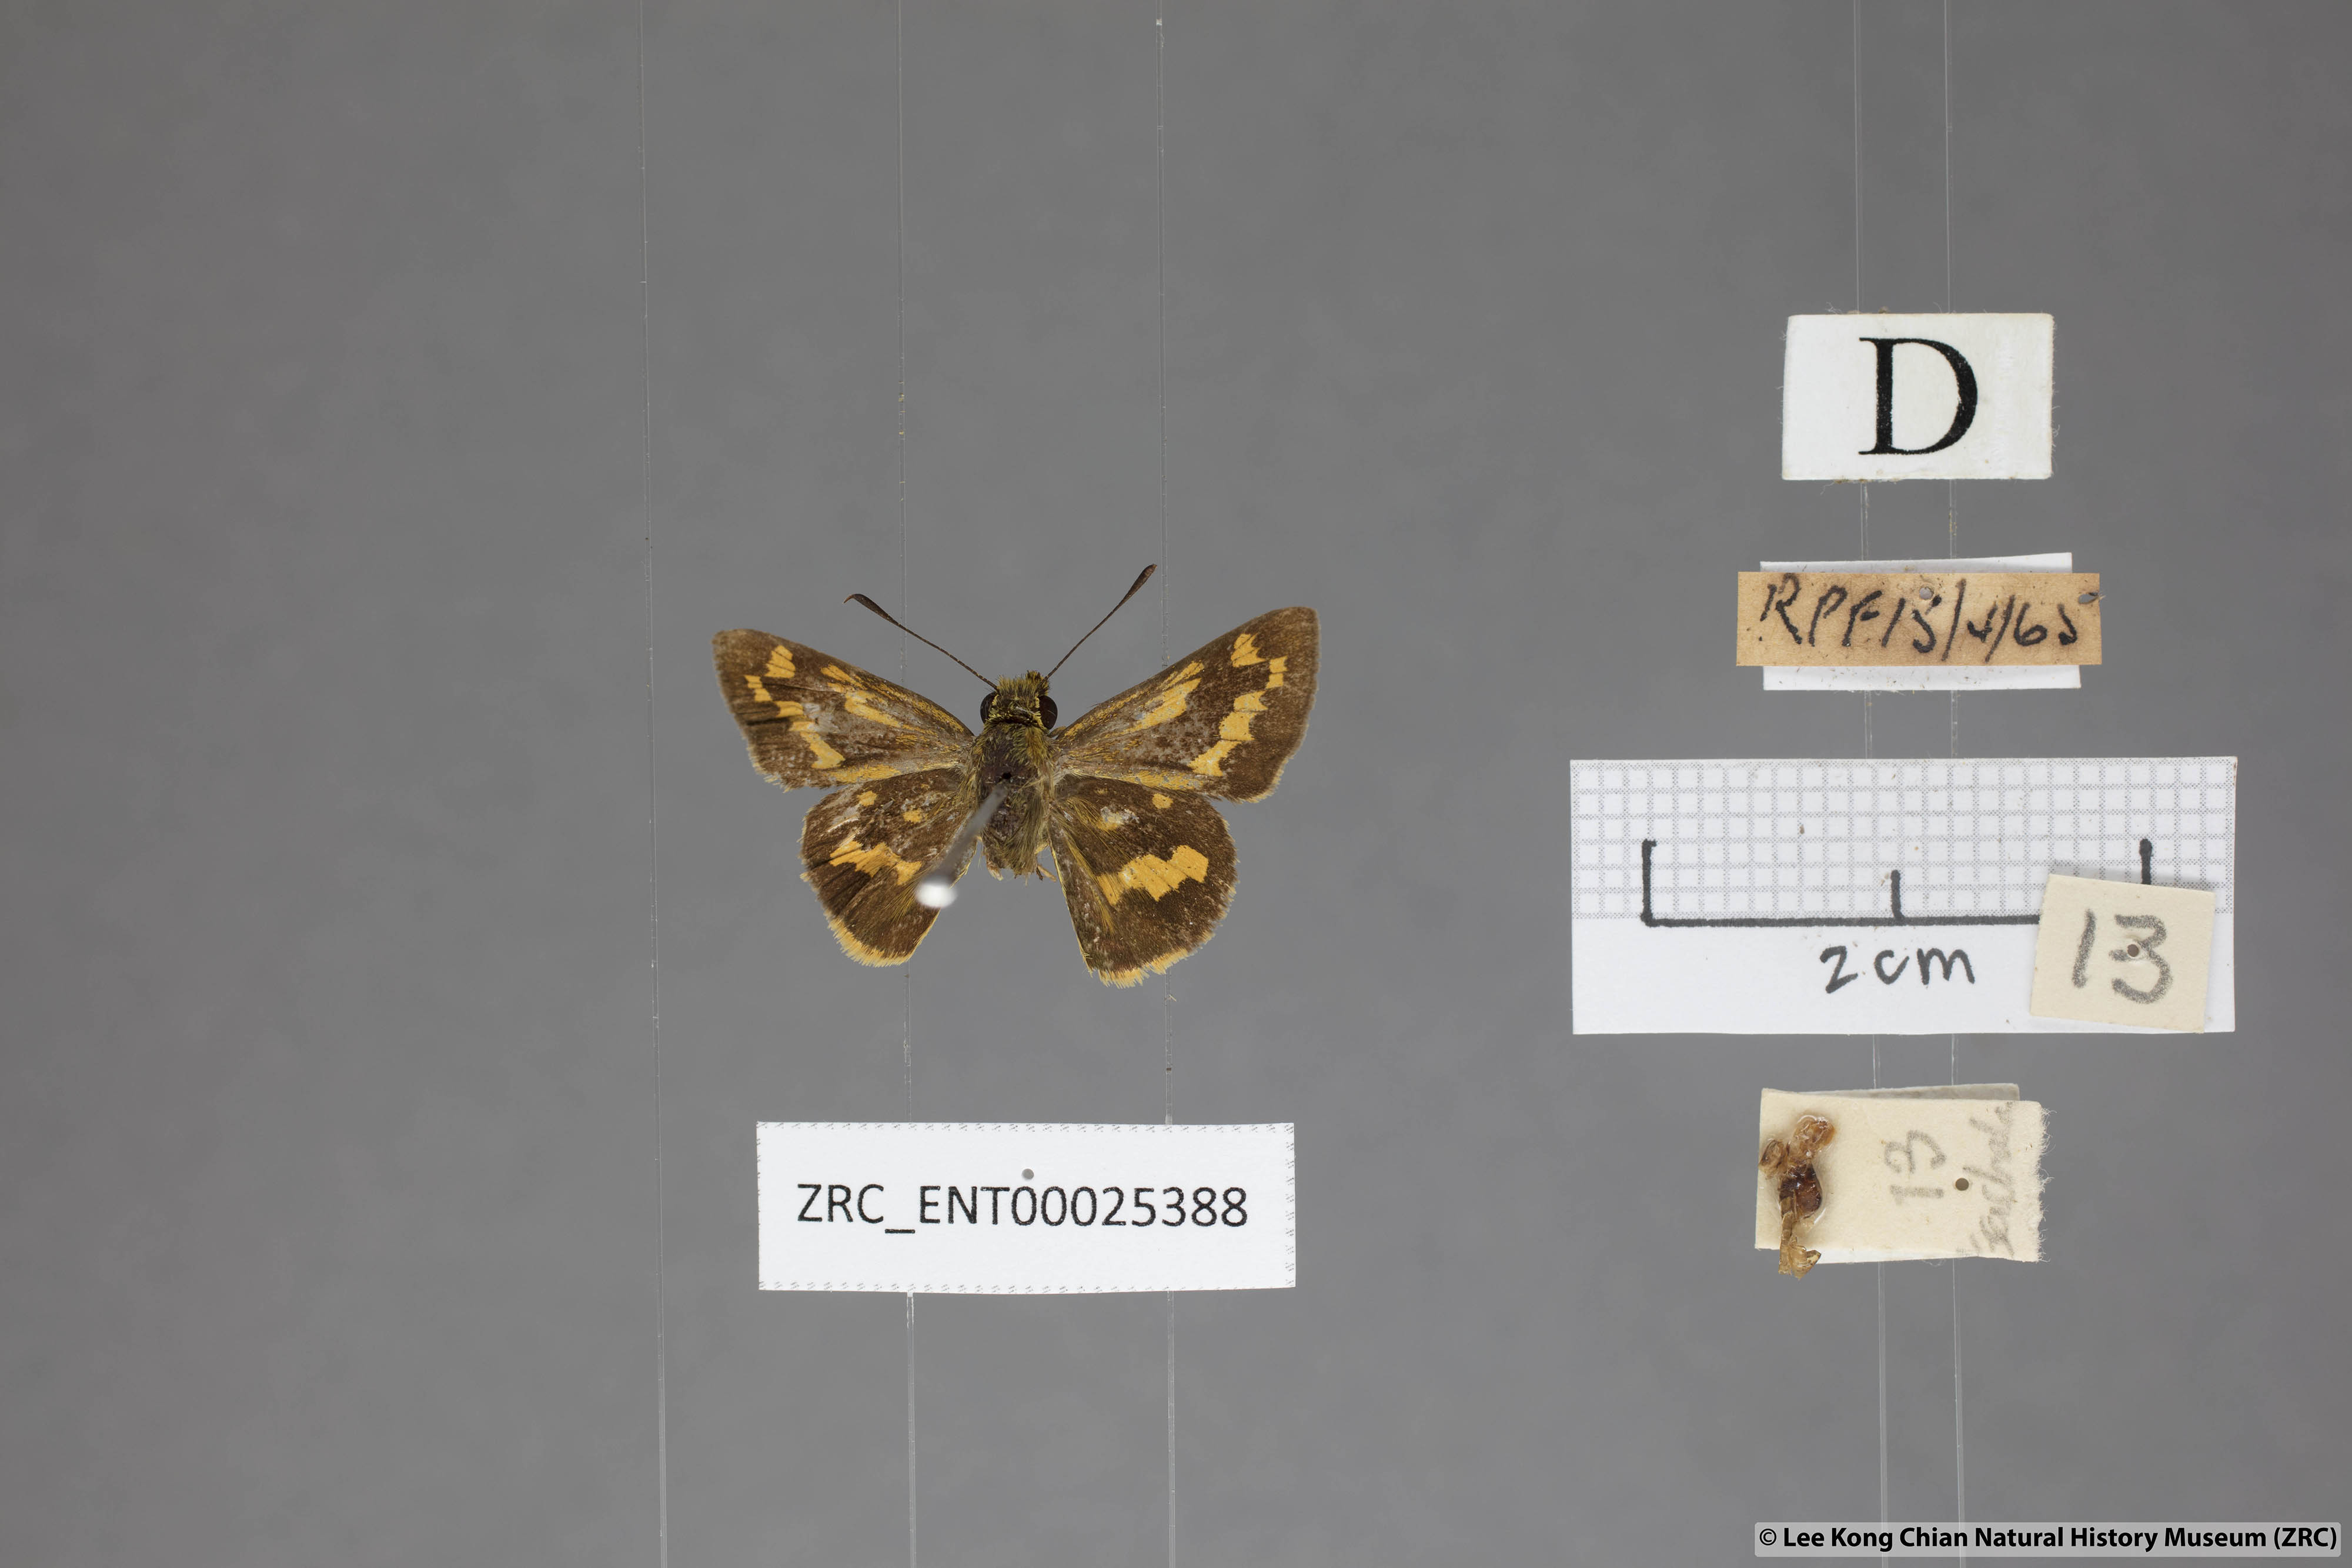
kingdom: Animalia
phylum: Arthropoda
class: Insecta
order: Lepidoptera
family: Hesperiidae
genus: Potanthus
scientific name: Potanthus ganda
